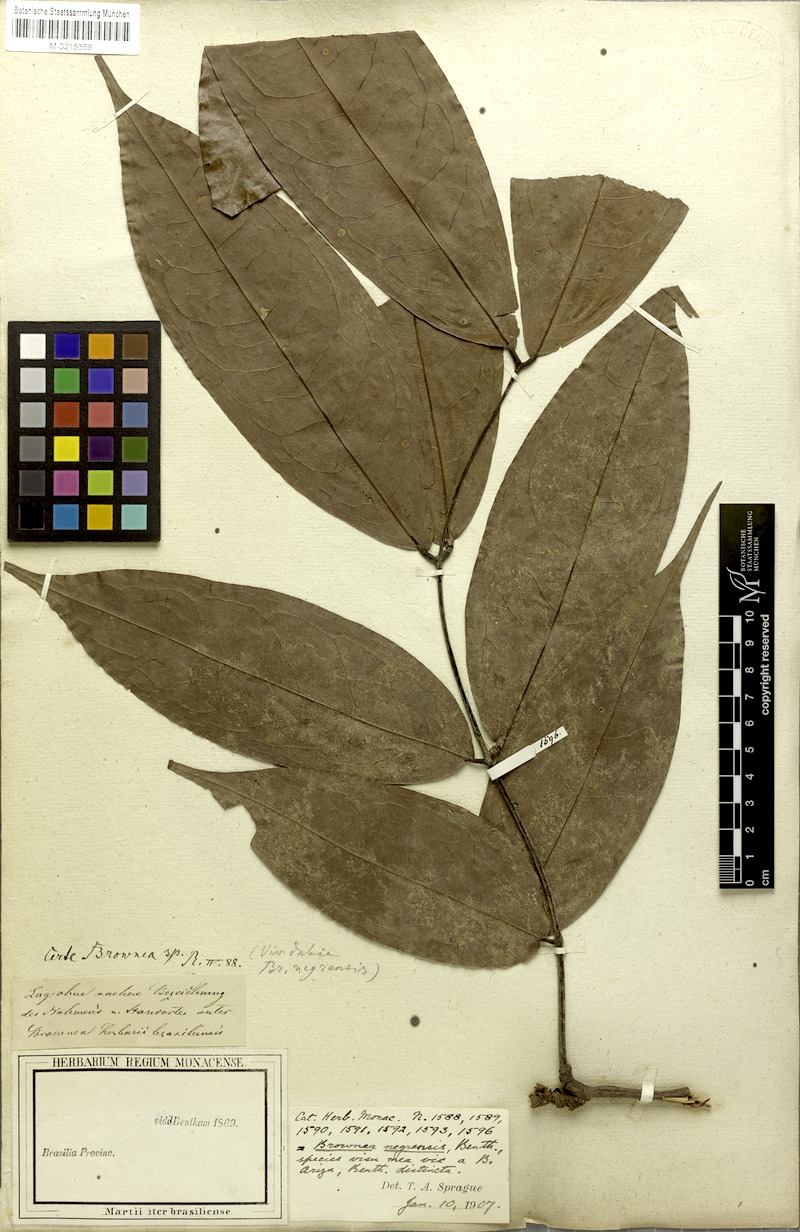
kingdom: Plantae
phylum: Tracheophyta
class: Magnoliopsida
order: Fabales
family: Fabaceae
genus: Brownea
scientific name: Brownea negrensis
